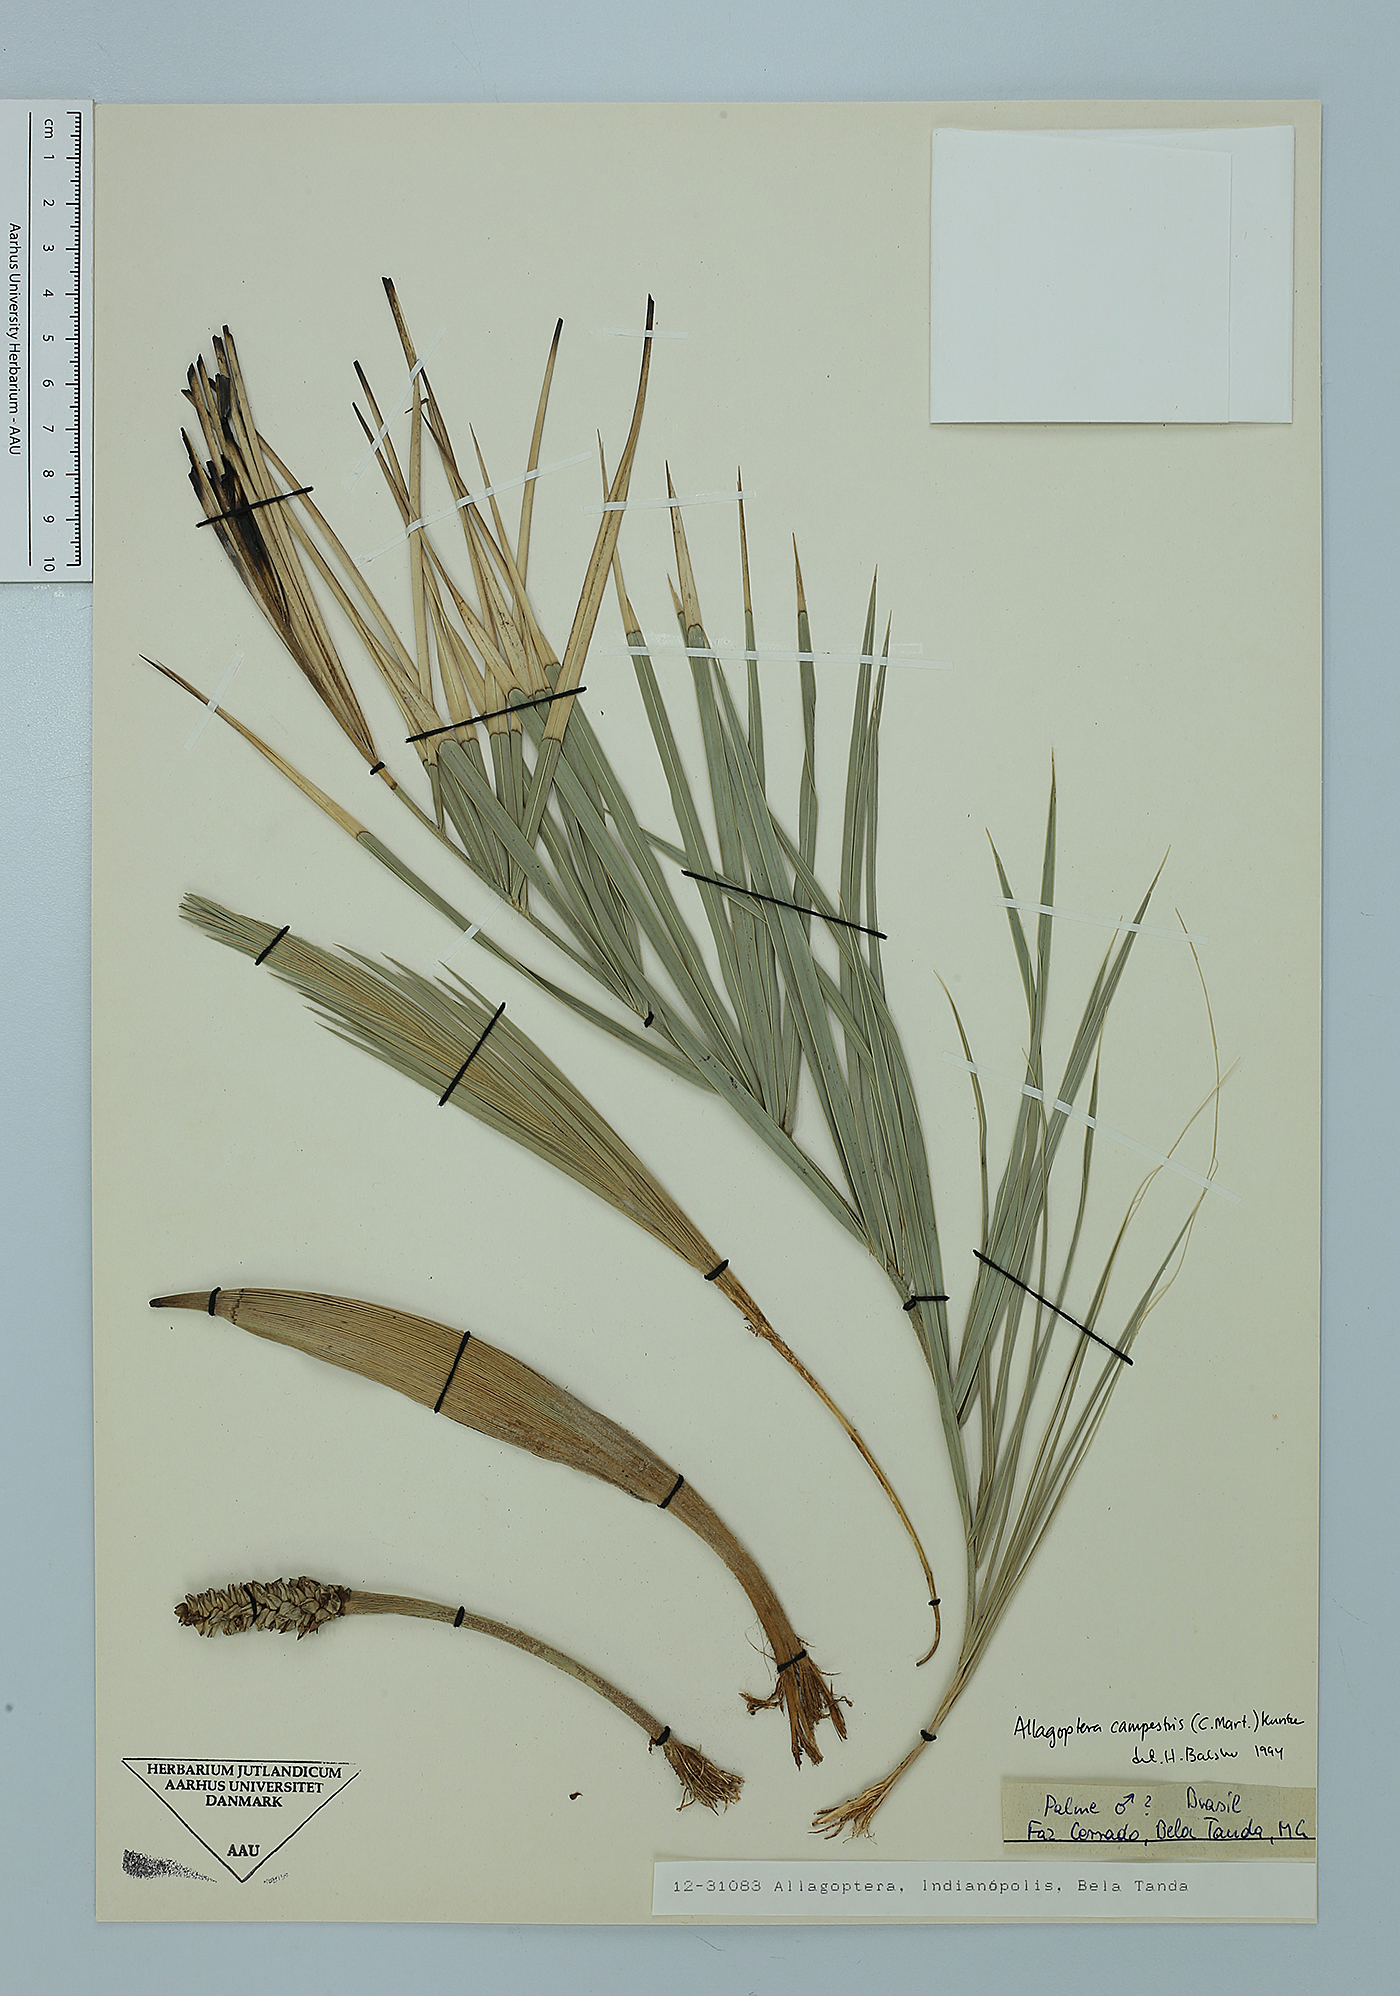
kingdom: Plantae
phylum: Tracheophyta
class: Liliopsida
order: Arecales
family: Arecaceae
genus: Allagoptera
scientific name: Allagoptera campestris
